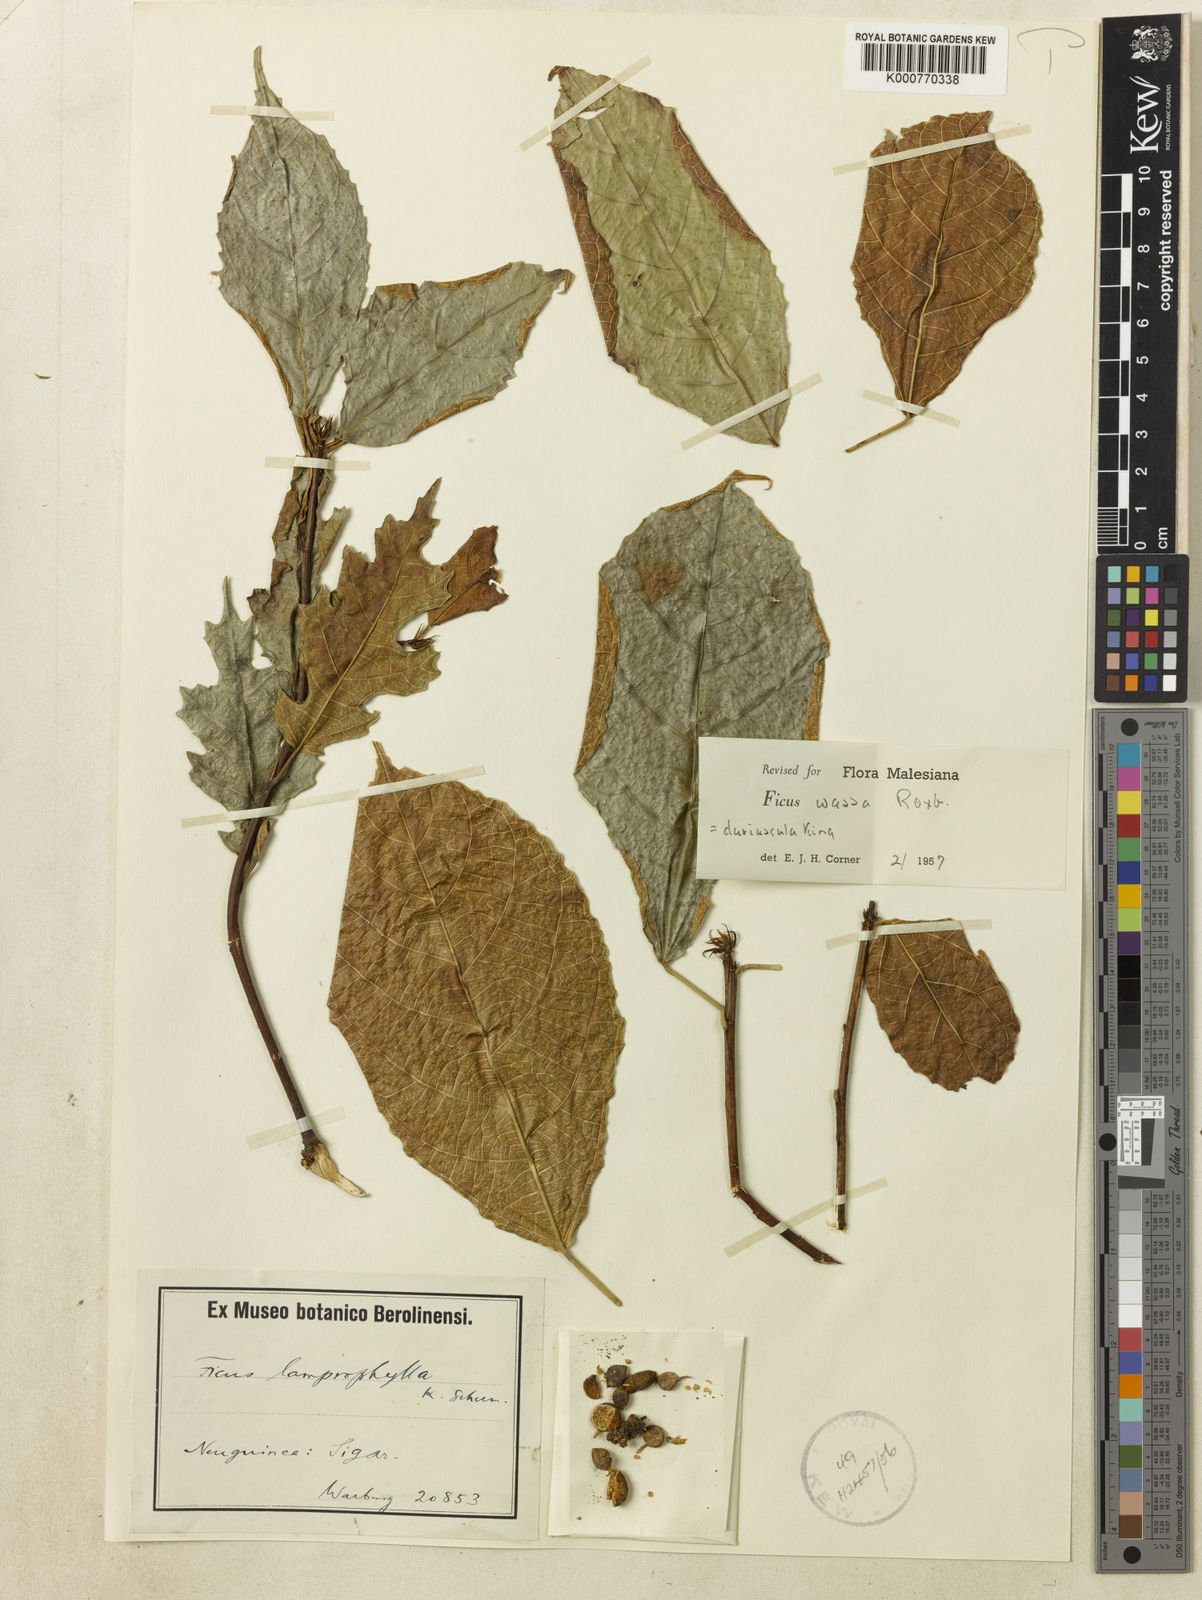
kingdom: Plantae
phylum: Tracheophyta
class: Magnoliopsida
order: Rosales
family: Moraceae
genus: Ficus
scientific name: Ficus wassa
